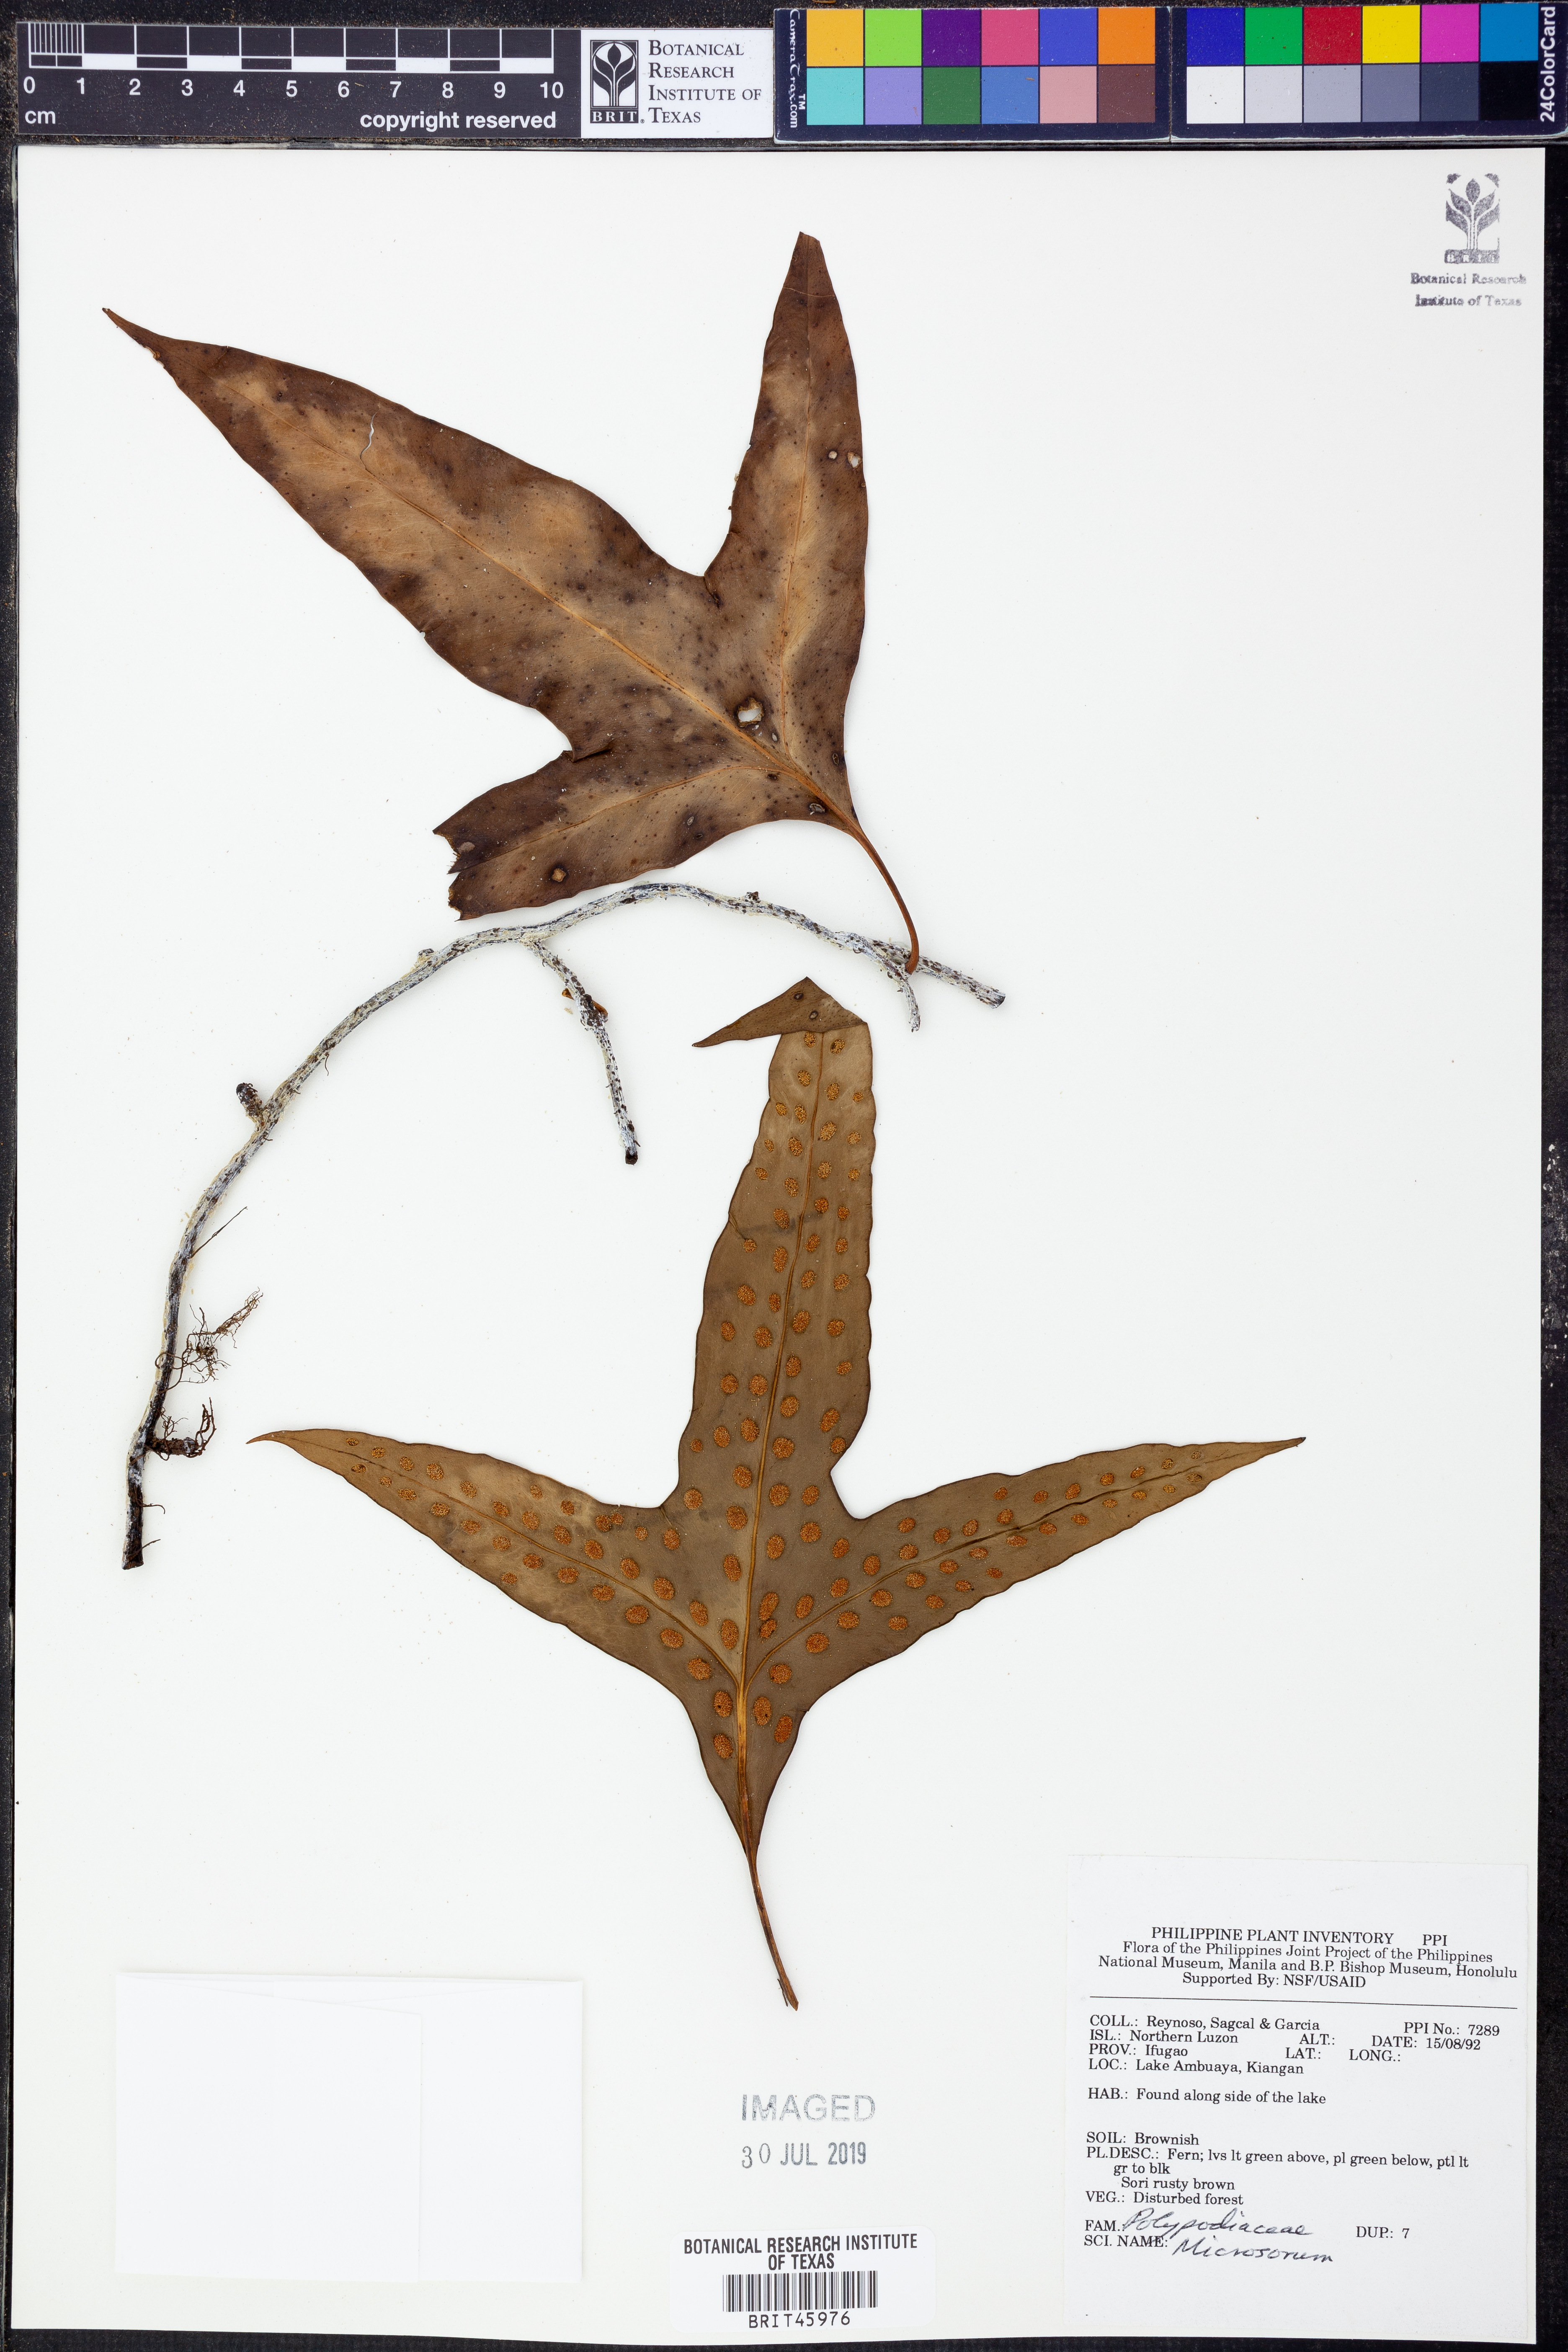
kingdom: Plantae
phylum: Tracheophyta
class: Polypodiopsida
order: Polypodiales
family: Polypodiaceae
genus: Microsorum
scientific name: Microsorum
